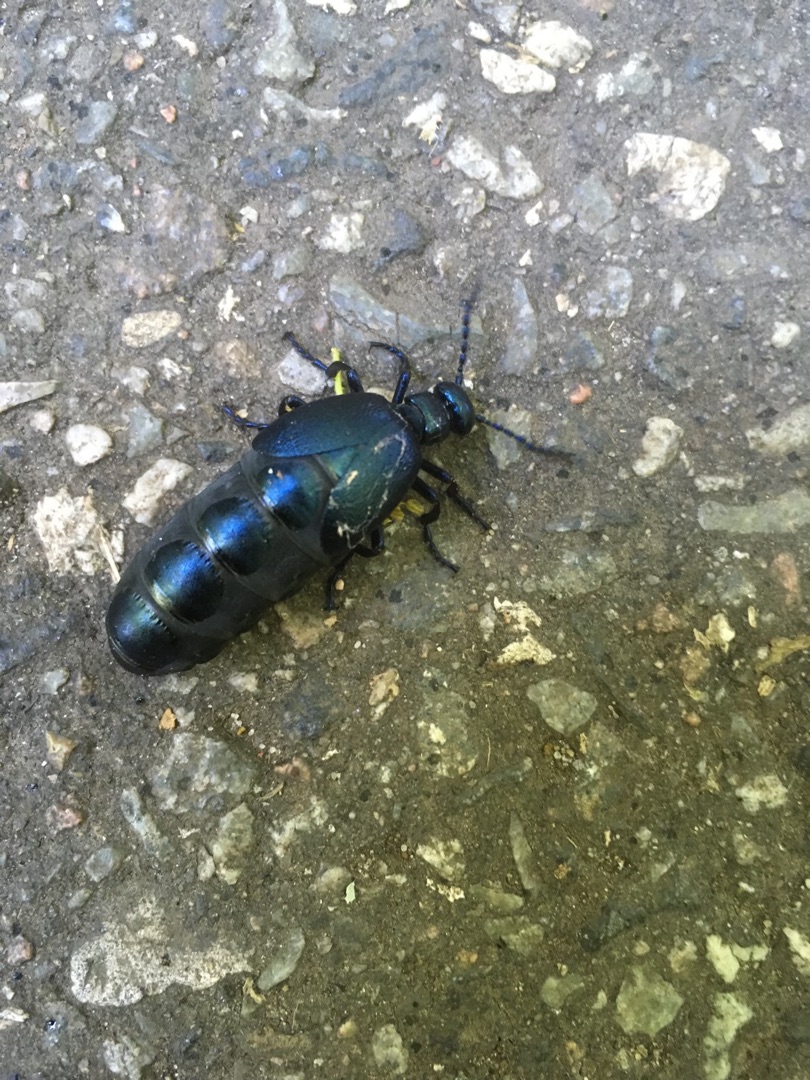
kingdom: Animalia
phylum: Arthropoda
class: Insecta
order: Coleoptera
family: Meloidae
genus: Meloe
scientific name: Meloe violaceus
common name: Blå oliebille
